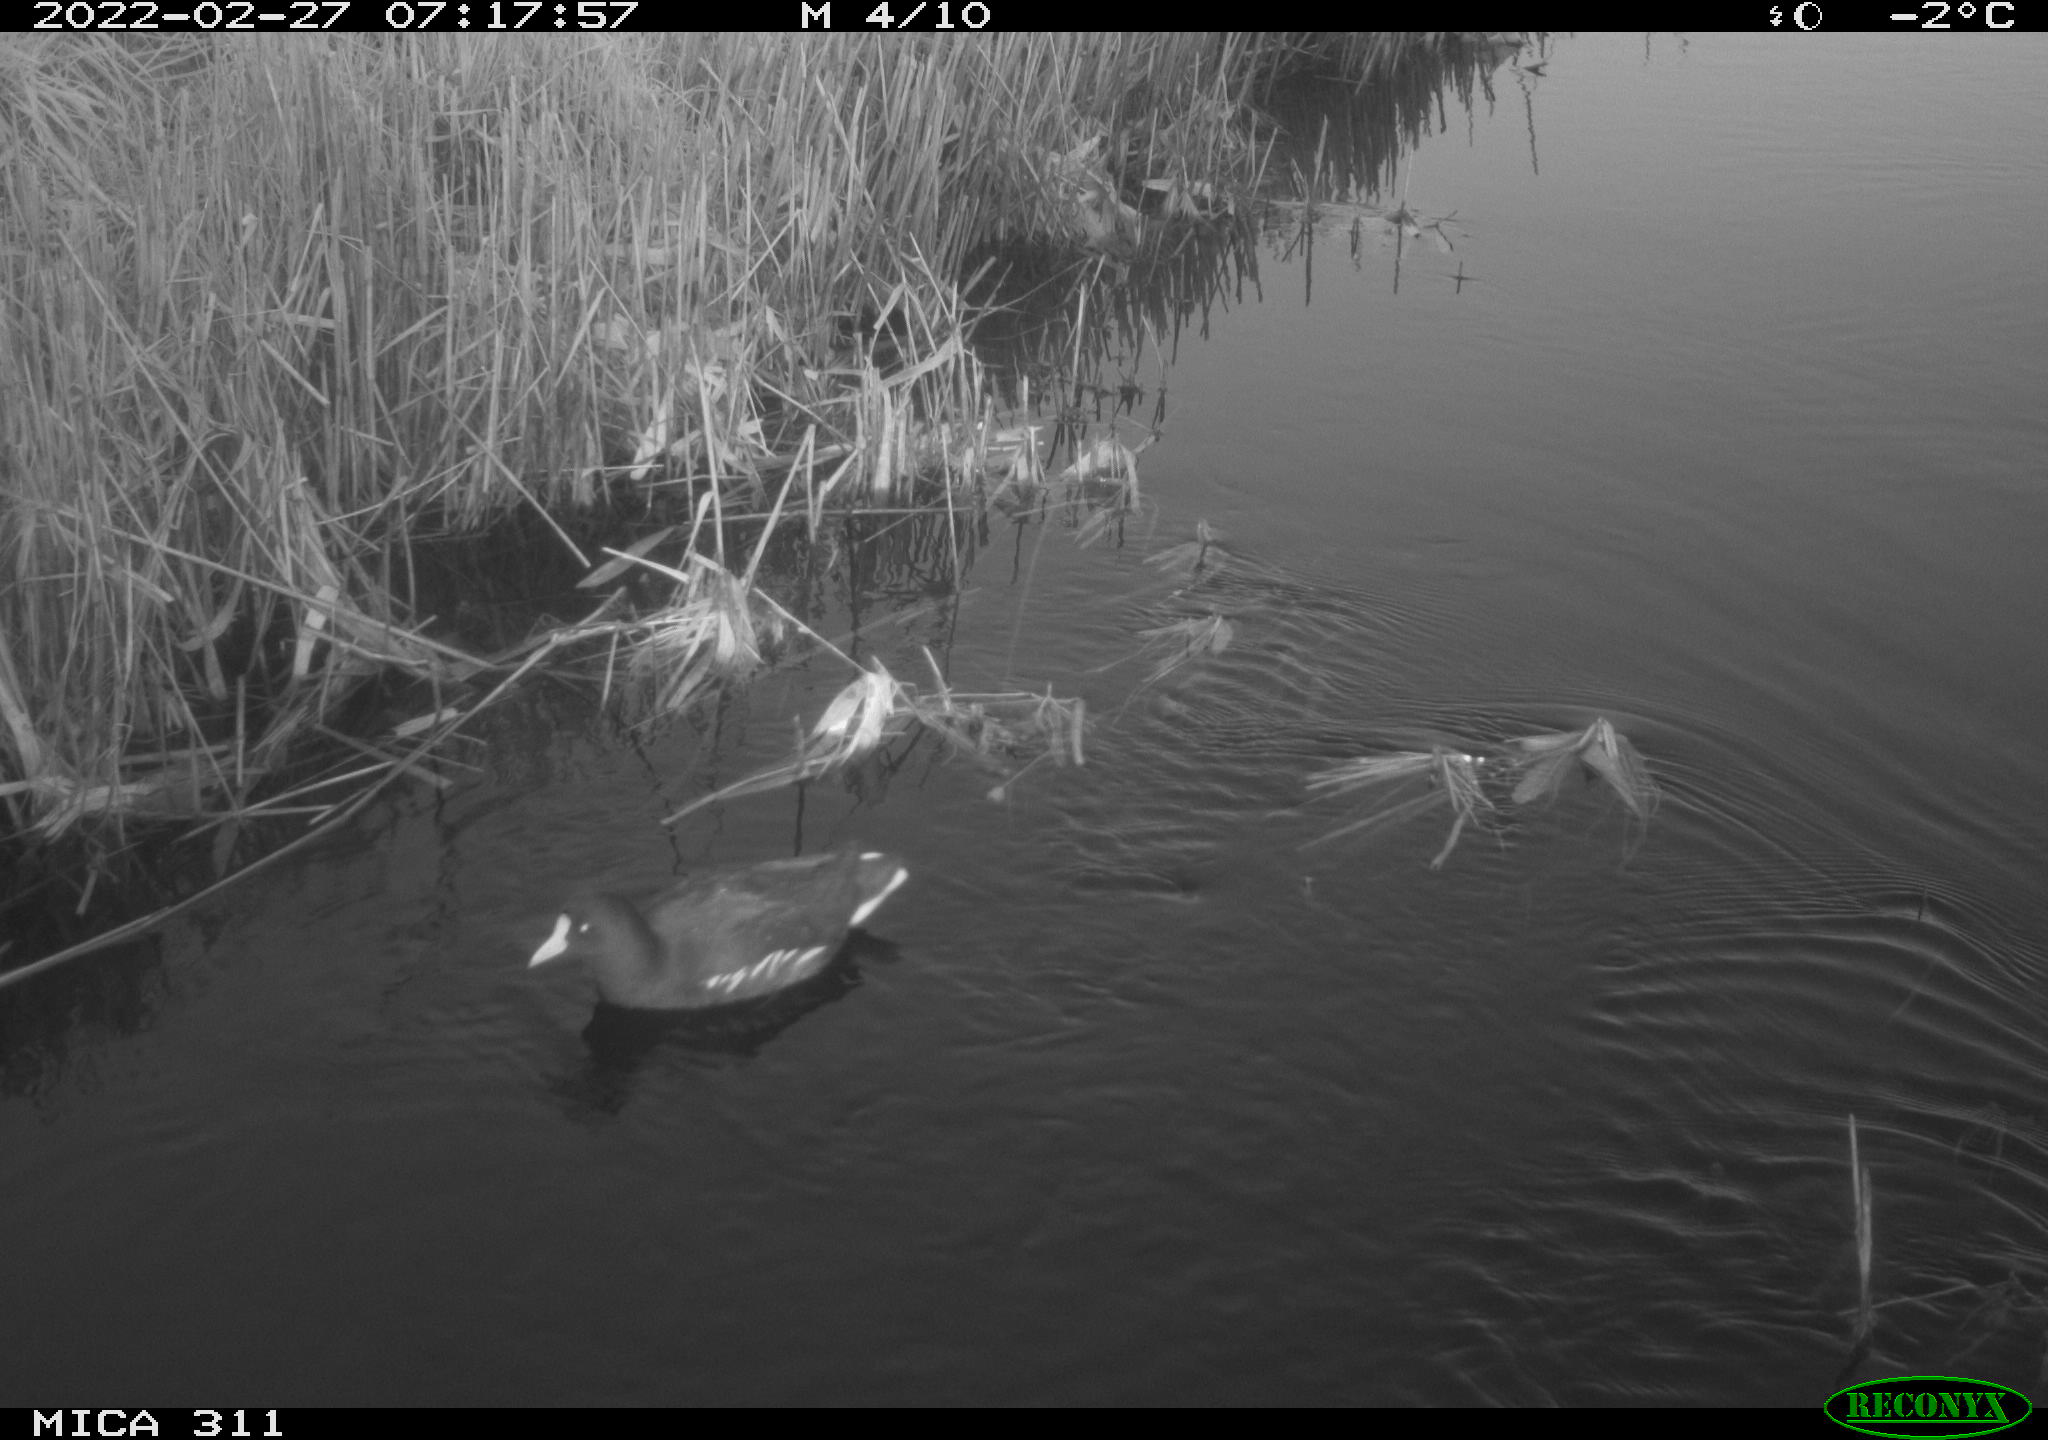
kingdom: Animalia
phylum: Chordata
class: Aves
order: Gruiformes
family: Rallidae
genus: Gallinula
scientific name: Gallinula chloropus
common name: Common moorhen
